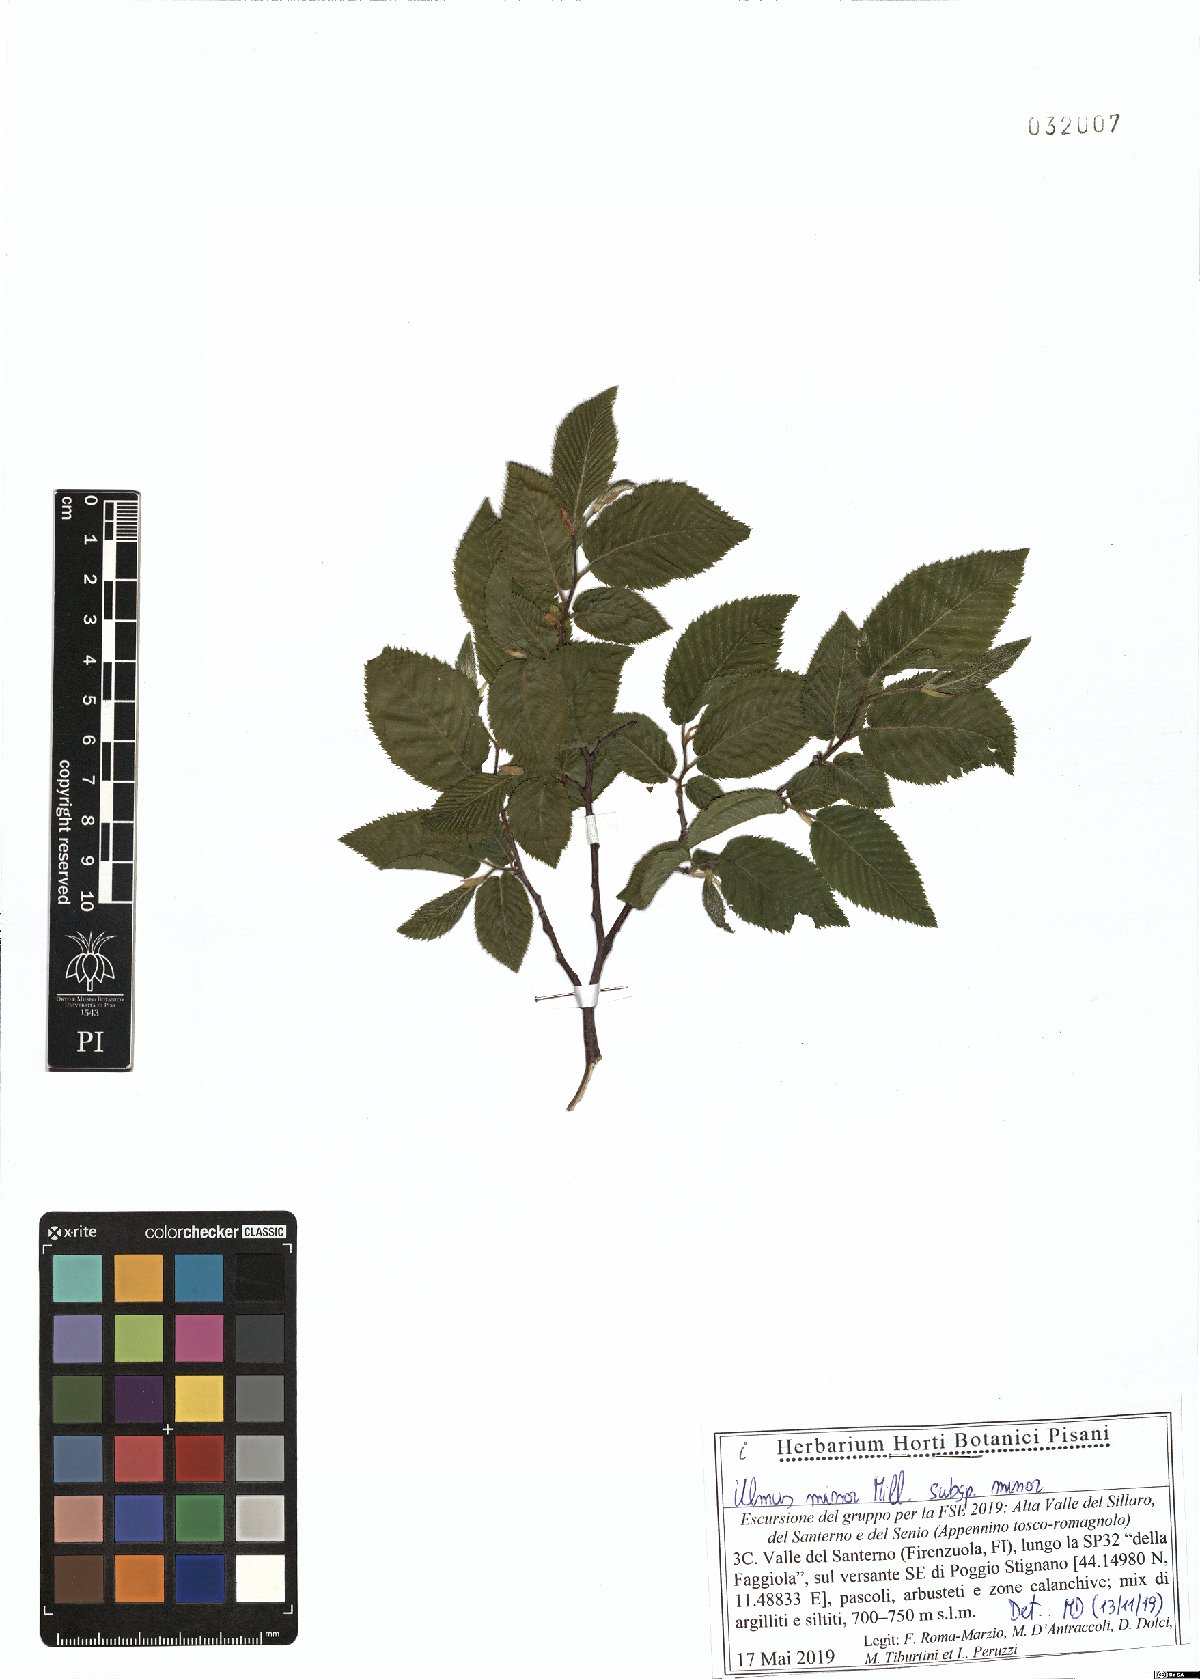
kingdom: Plantae
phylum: Tracheophyta
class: Magnoliopsida
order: Rosales
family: Ulmaceae
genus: Ulmus
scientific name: Ulmus minor
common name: Small-leaved elm
